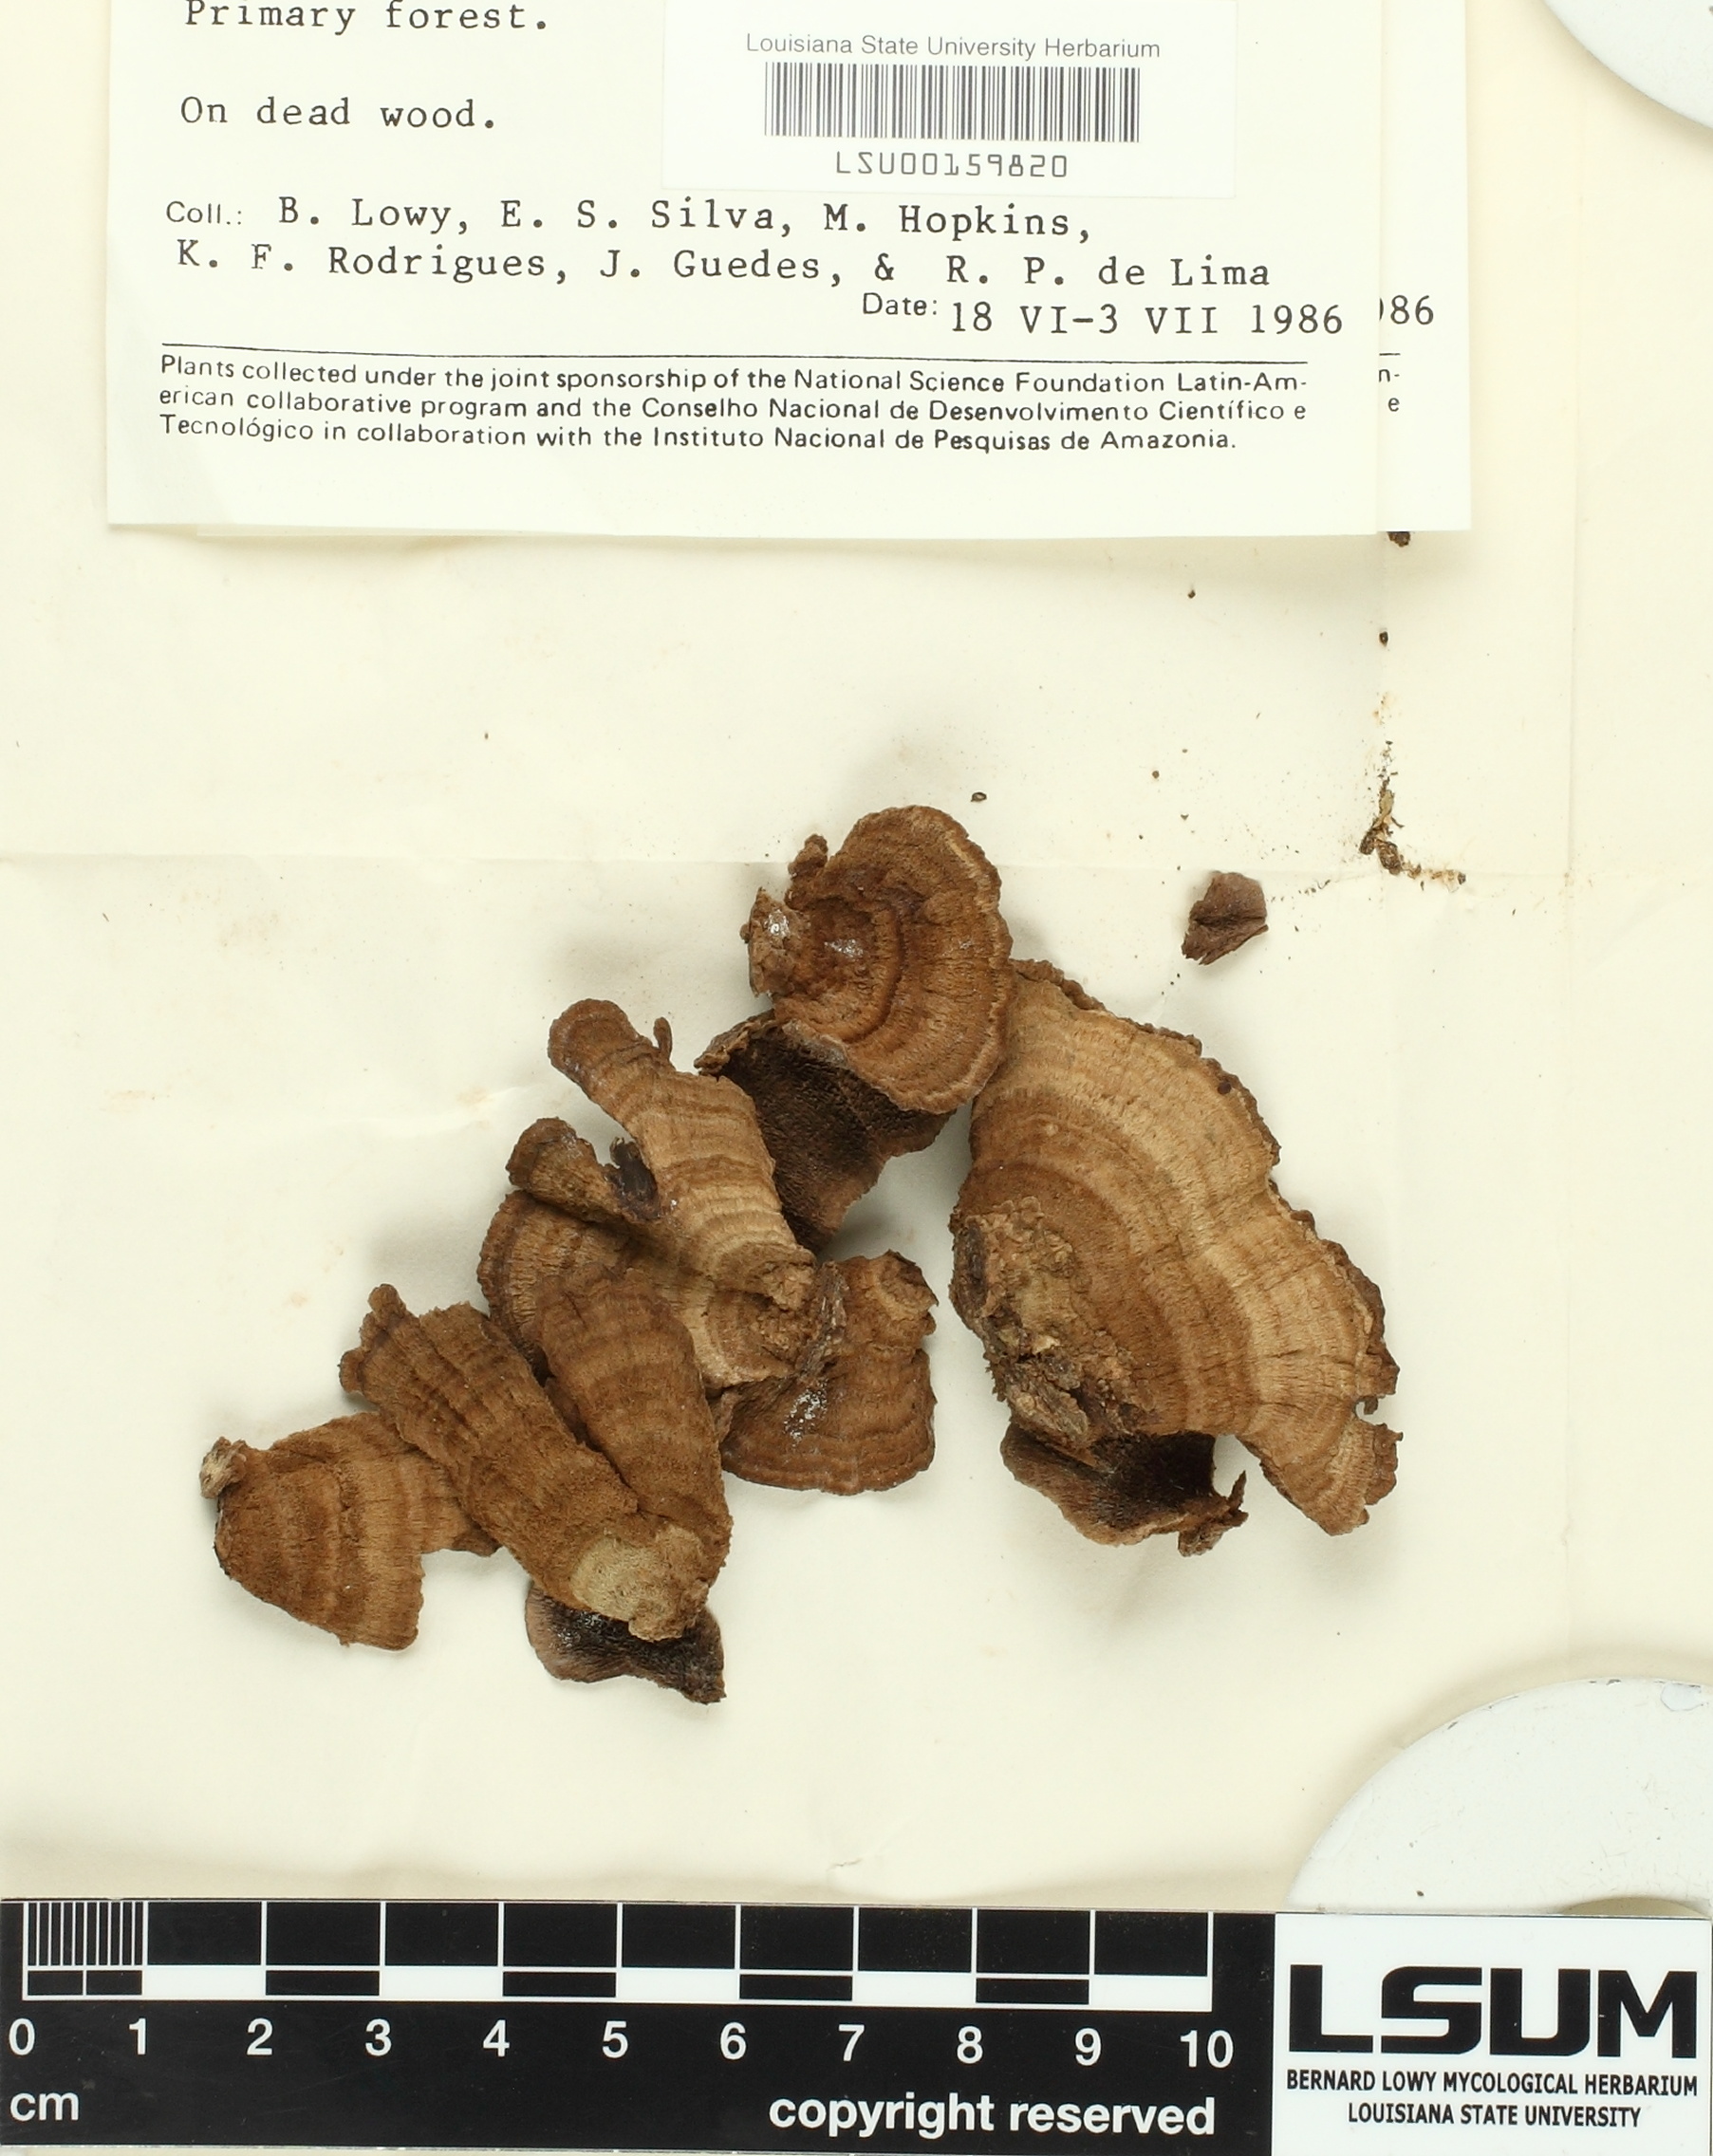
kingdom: Fungi
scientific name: Fungi
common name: Fungi
